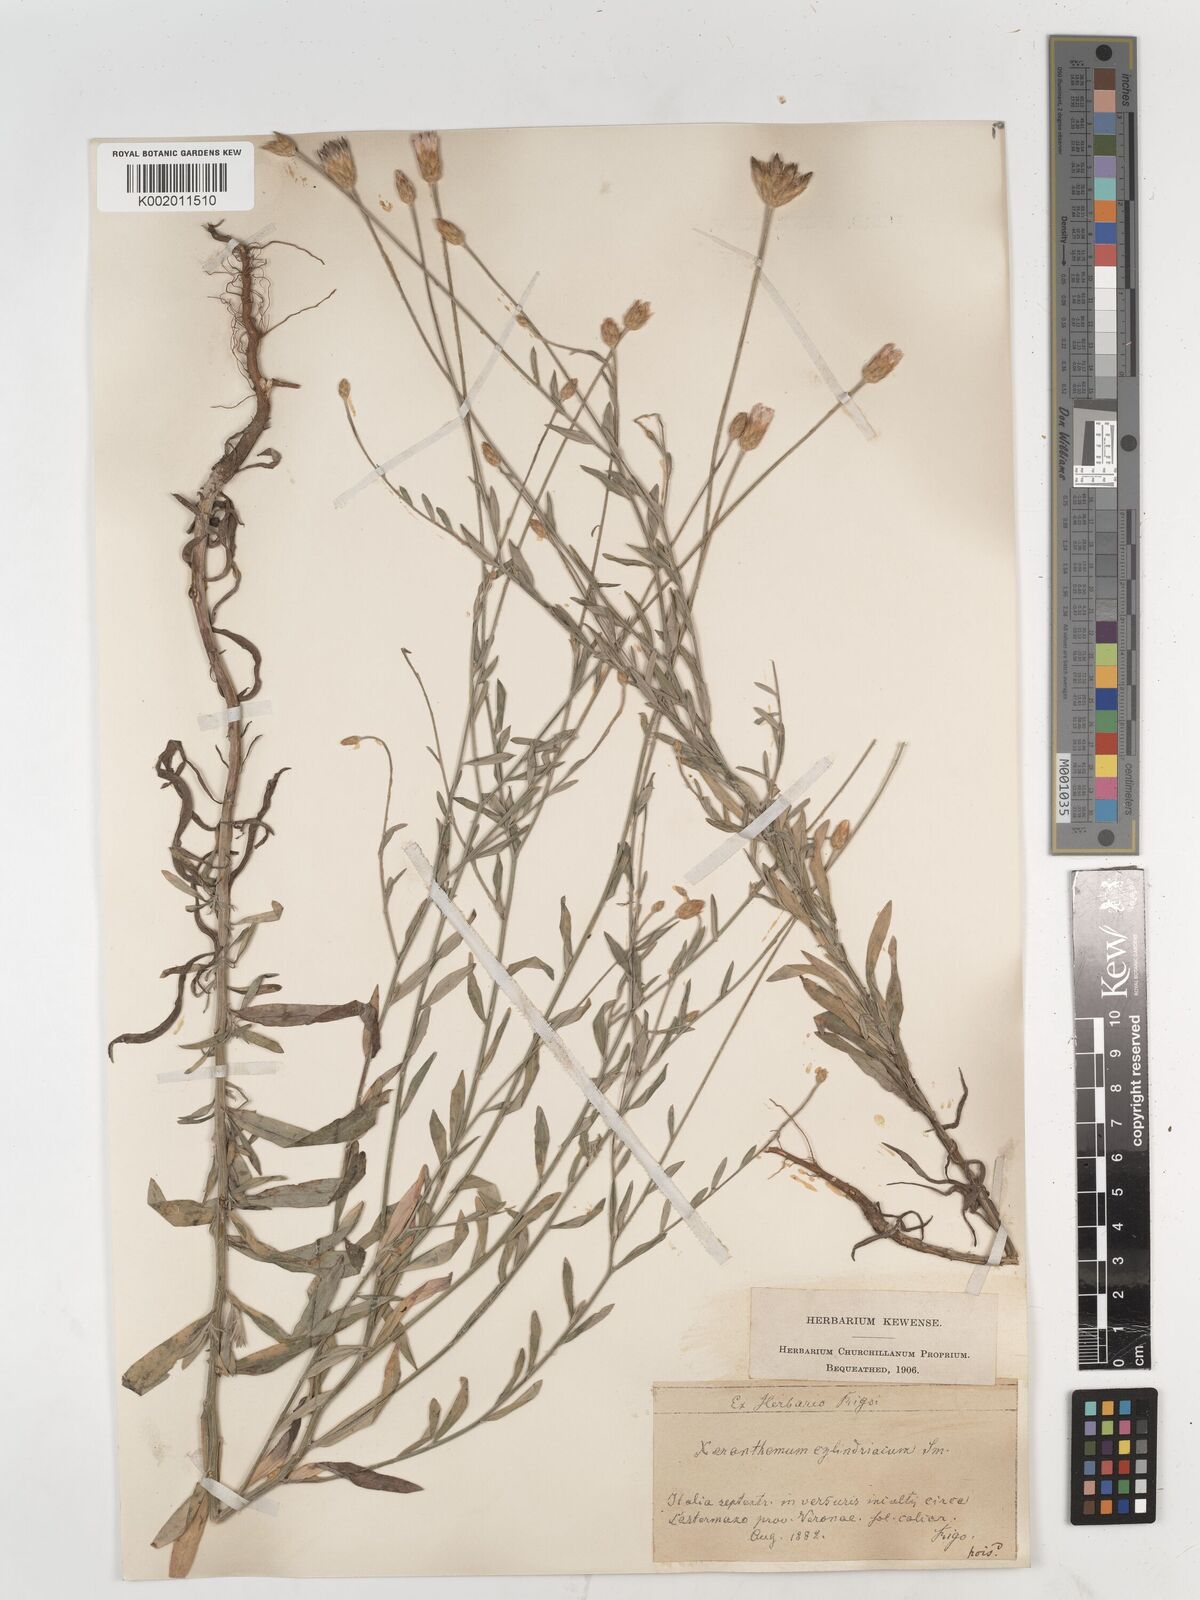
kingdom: Plantae
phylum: Tracheophyta
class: Magnoliopsida
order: Asterales
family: Asteraceae
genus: Xeranthemum
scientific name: Xeranthemum cylindraceum
